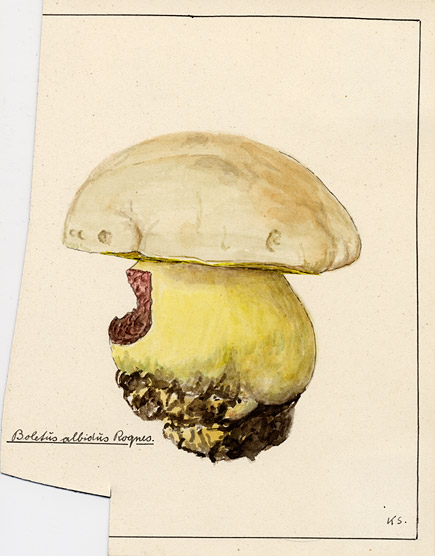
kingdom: Fungi
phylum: Basidiomycota
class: Agaricomycetes
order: Boletales
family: Boletaceae
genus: Caloboletus
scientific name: Caloboletus radicans
